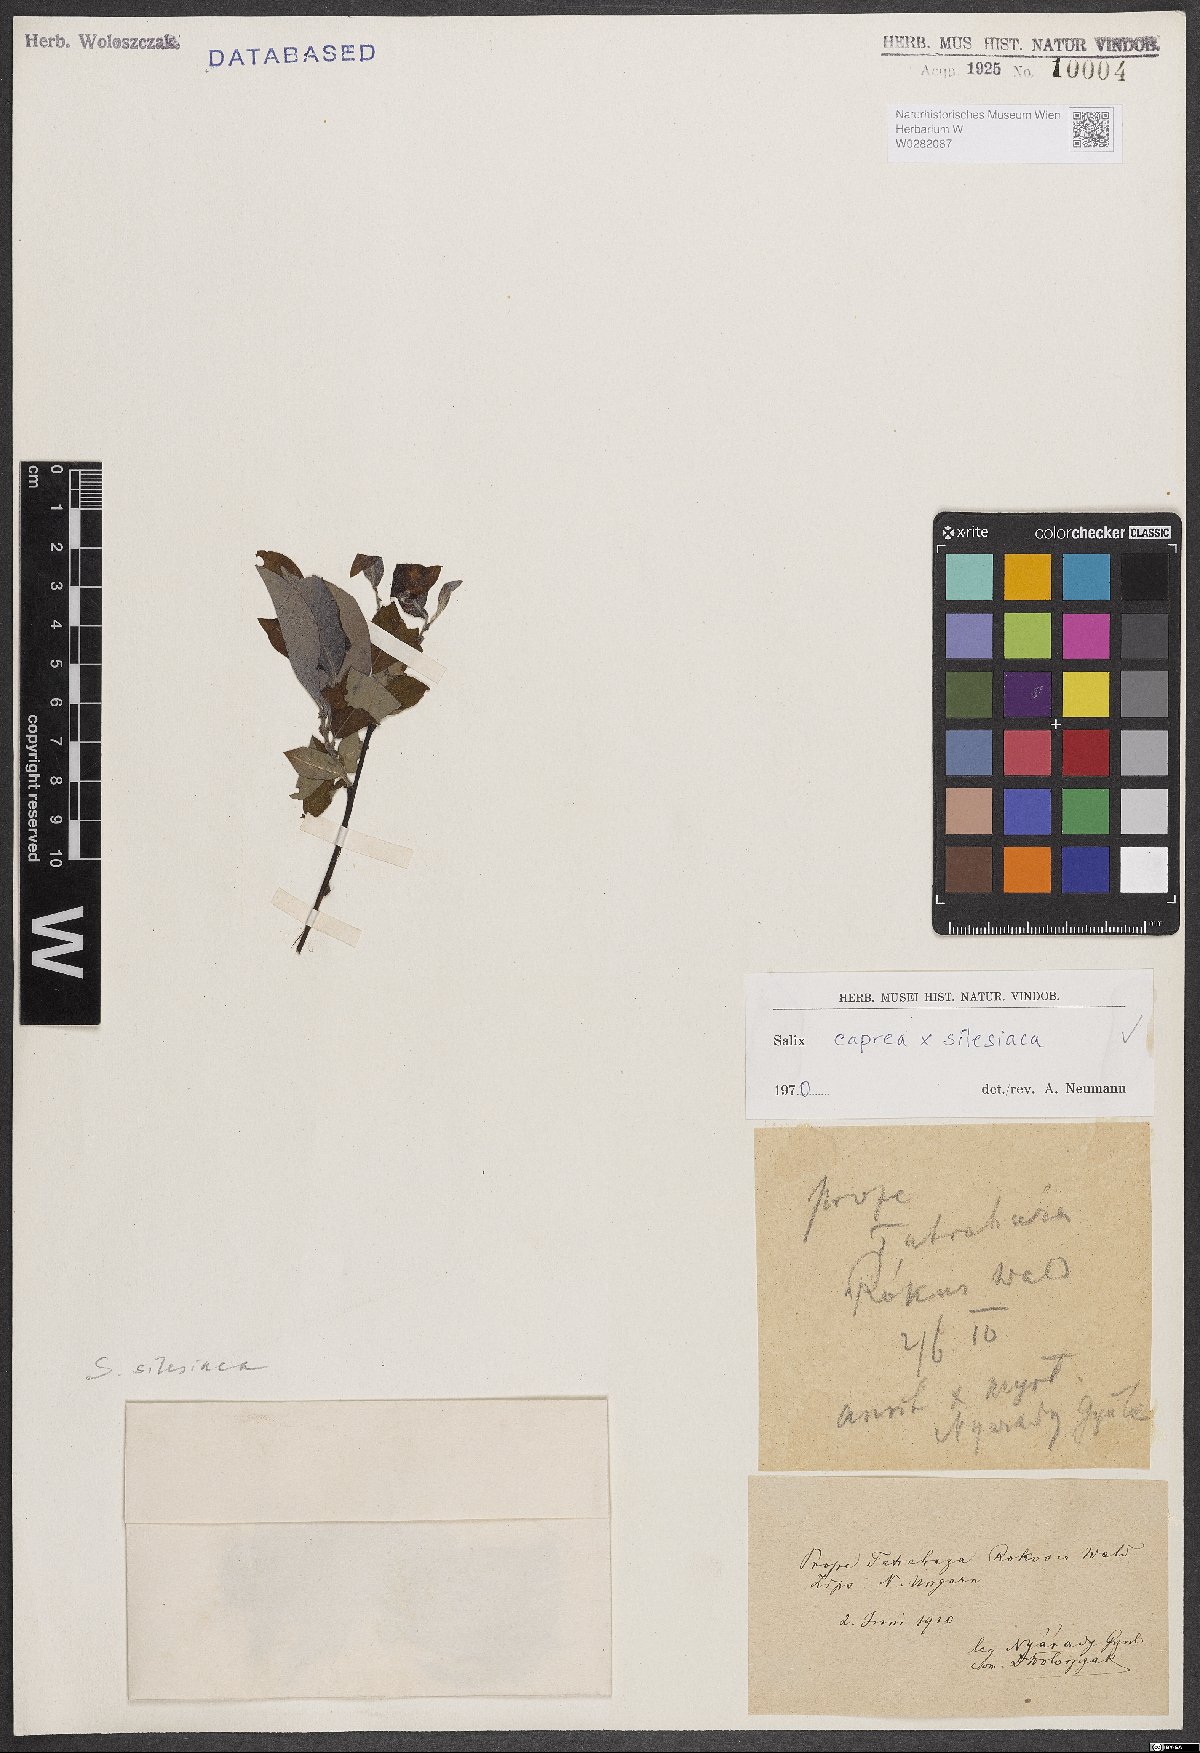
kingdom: Plantae
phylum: Tracheophyta
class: Magnoliopsida
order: Malpighiales
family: Salicaceae
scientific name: Salicaceae
